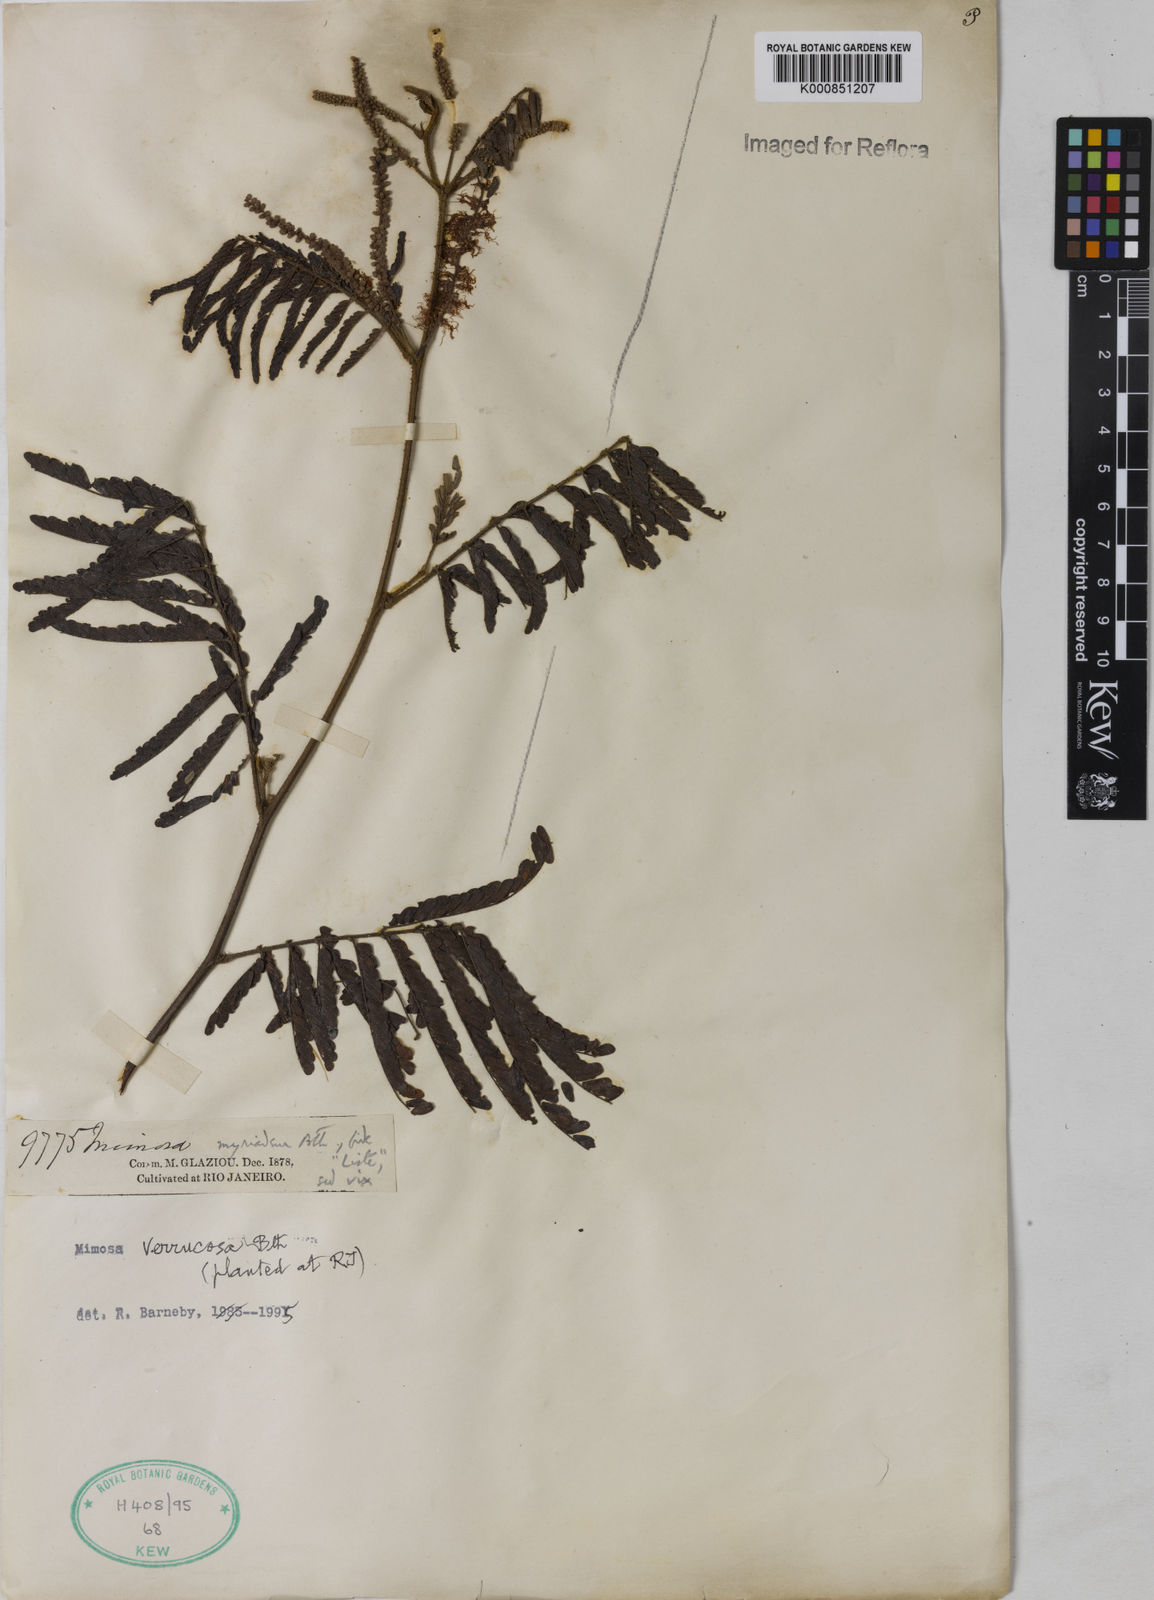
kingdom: Plantae
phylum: Tracheophyta
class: Magnoliopsida
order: Fabales
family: Fabaceae
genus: Mimosa
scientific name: Mimosa verrucosa
